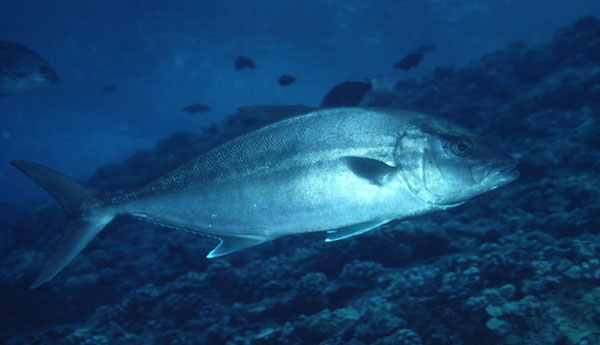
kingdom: Animalia
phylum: Chordata
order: Perciformes
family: Carangidae
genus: Seriola
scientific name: Seriola dumerili
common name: Greater amberjack
